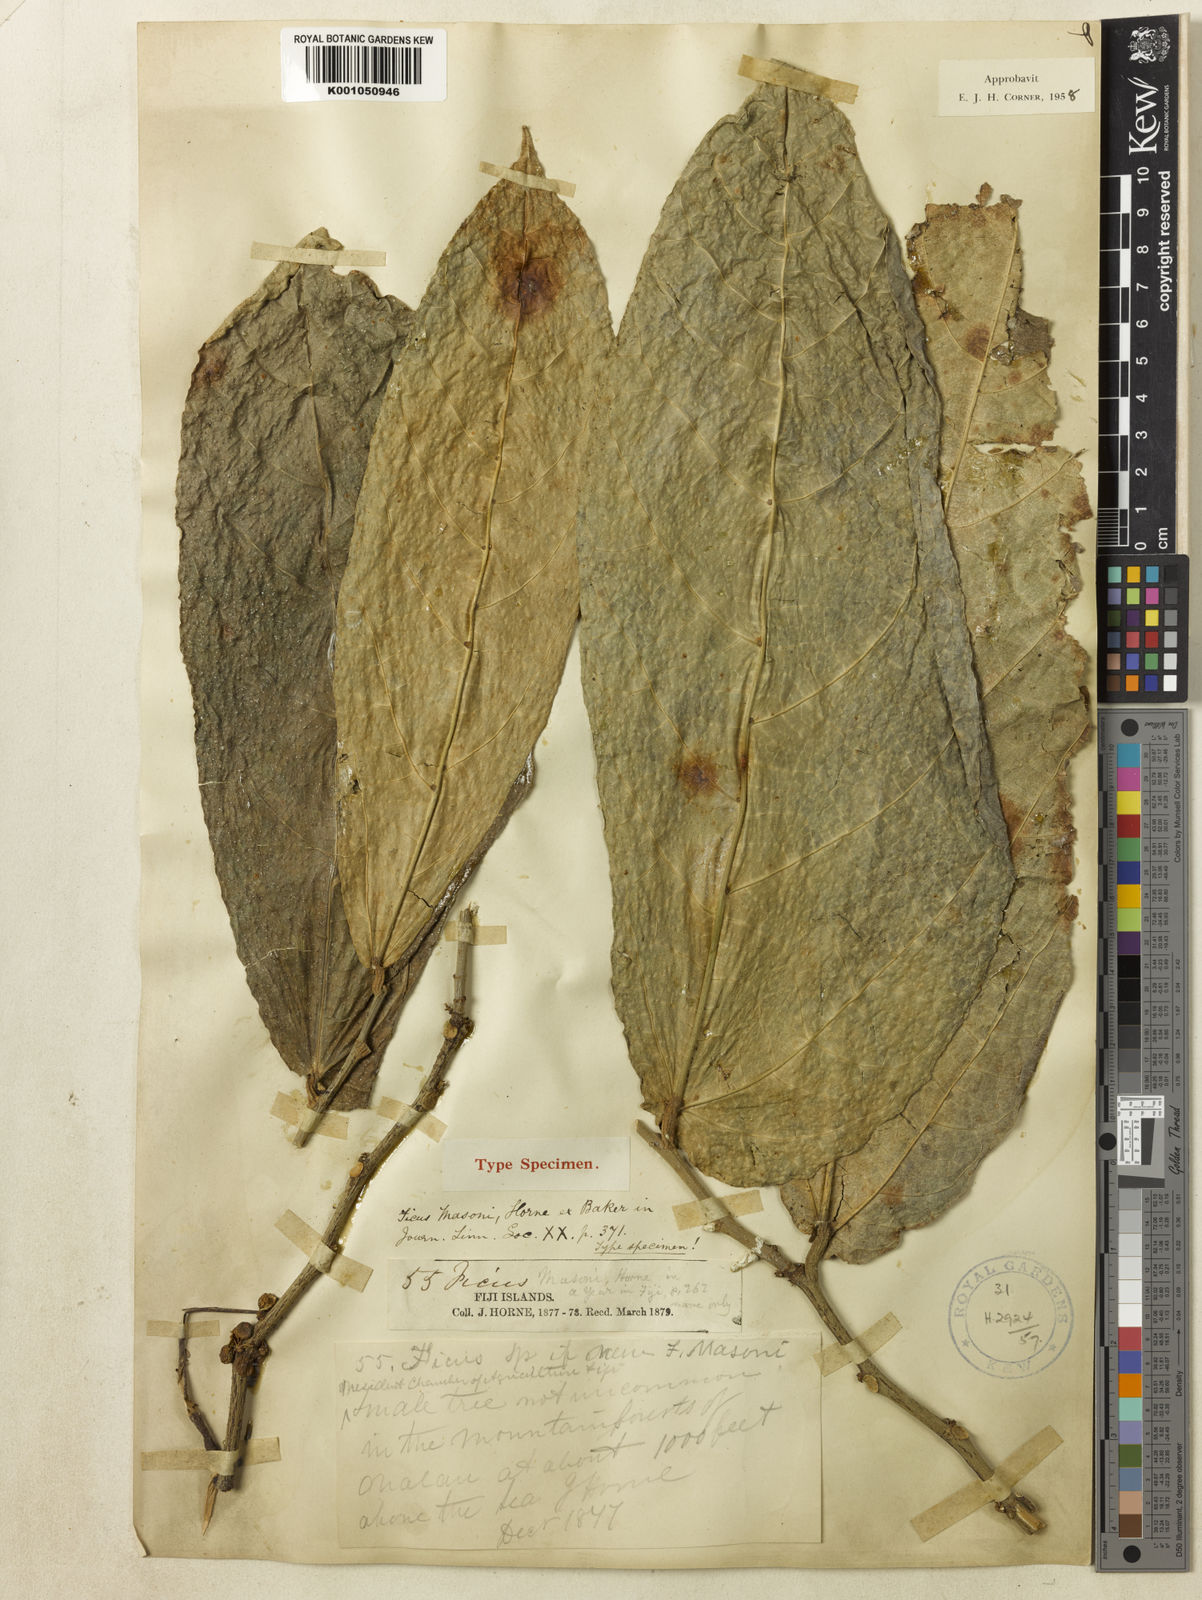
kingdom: Plantae
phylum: Tracheophyta
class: Magnoliopsida
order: Rosales
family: Moraceae
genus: Ficus
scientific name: Ficus masonii
